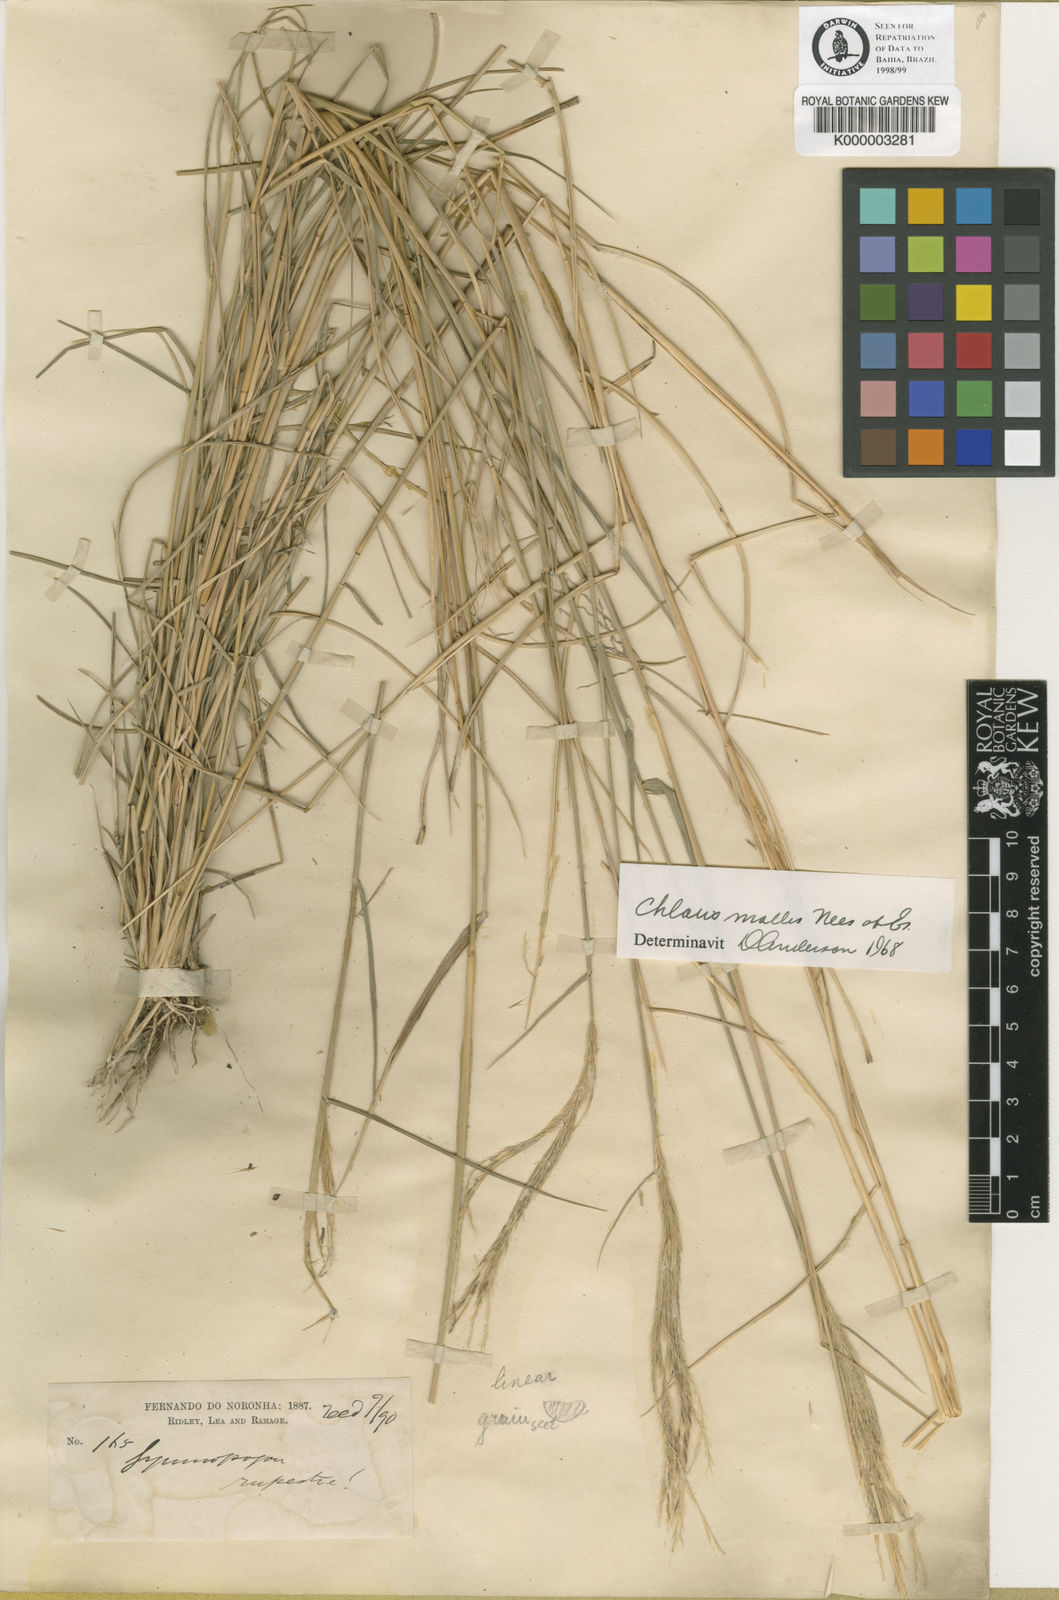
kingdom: Plantae
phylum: Tracheophyta
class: Liliopsida
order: Poales
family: Poaceae
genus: Leptochloa
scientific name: Leptochloa anisopoda
